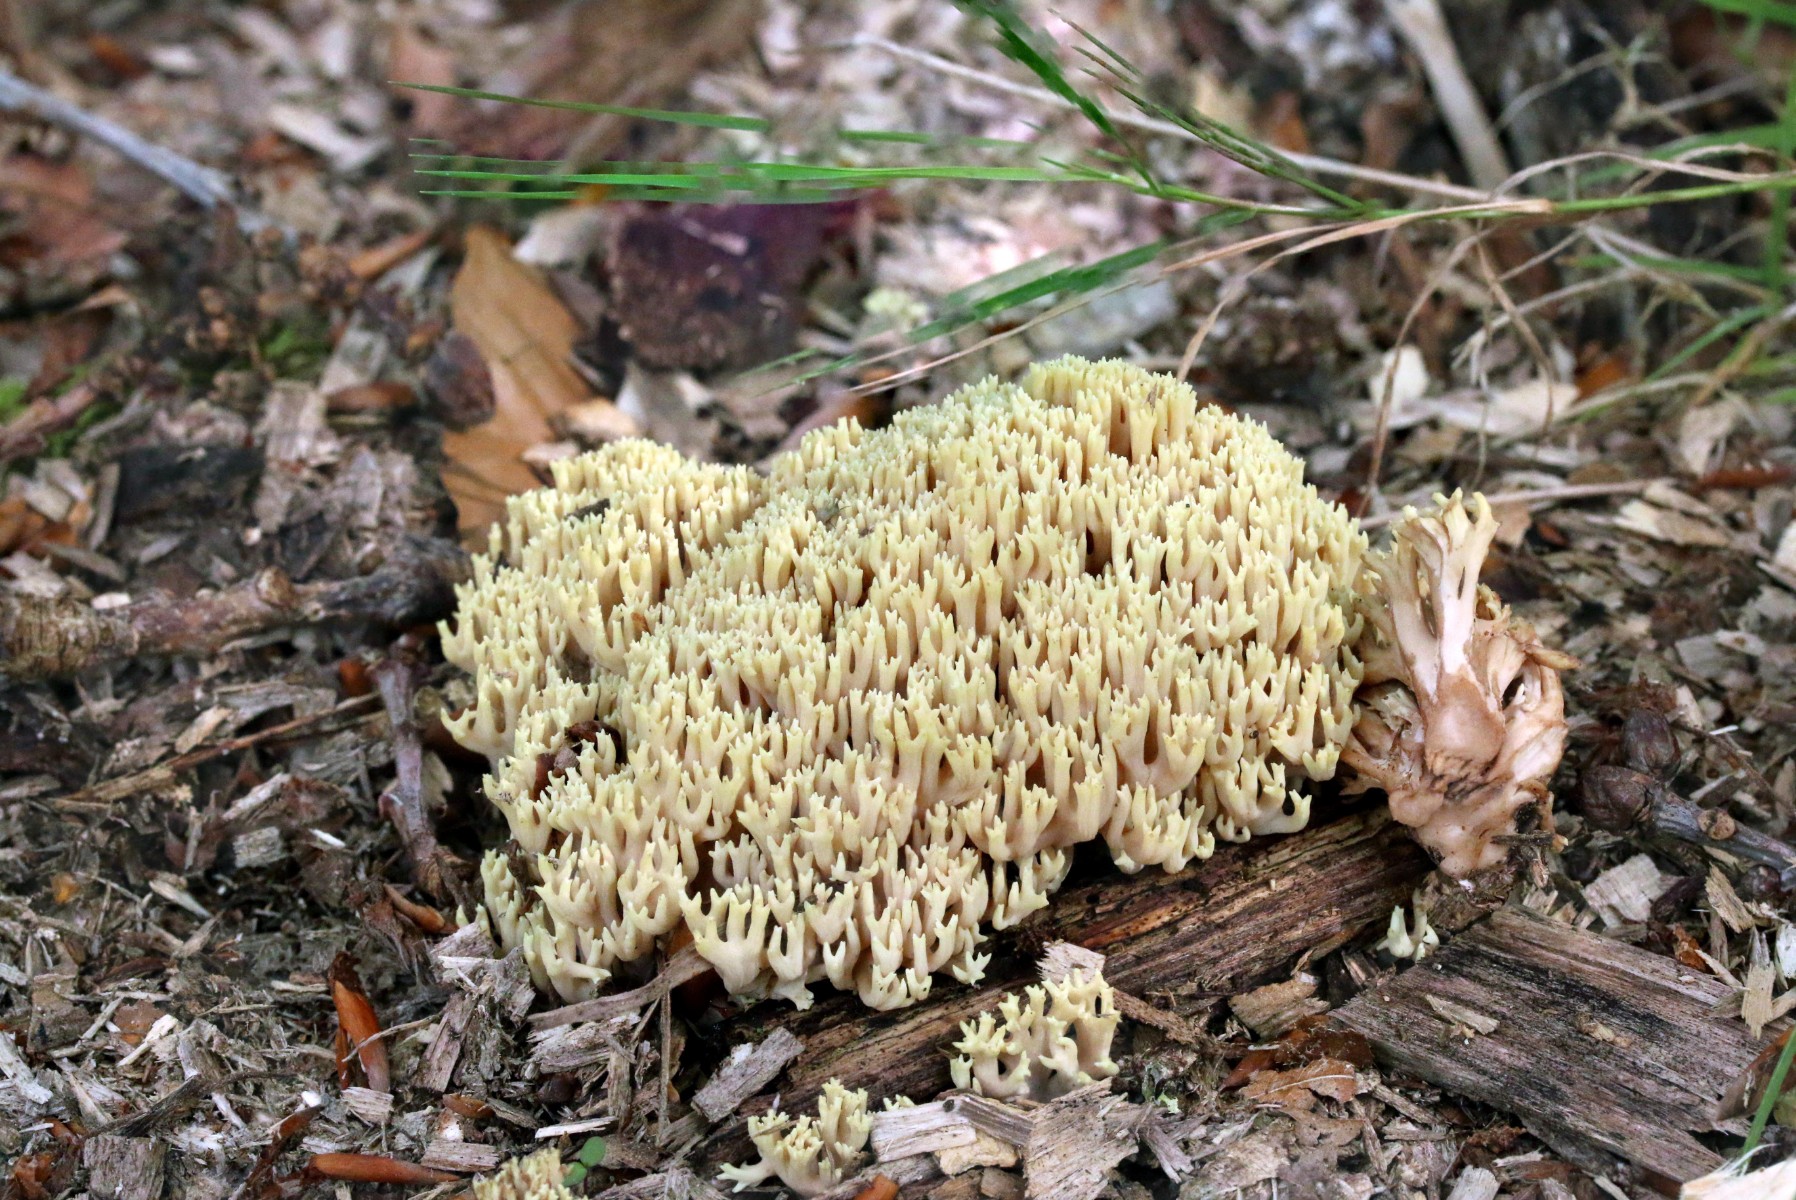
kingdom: Fungi
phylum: Basidiomycota
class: Agaricomycetes
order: Gomphales
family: Gomphaceae
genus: Ramaria
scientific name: Ramaria stricta
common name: rank koralsvamp
